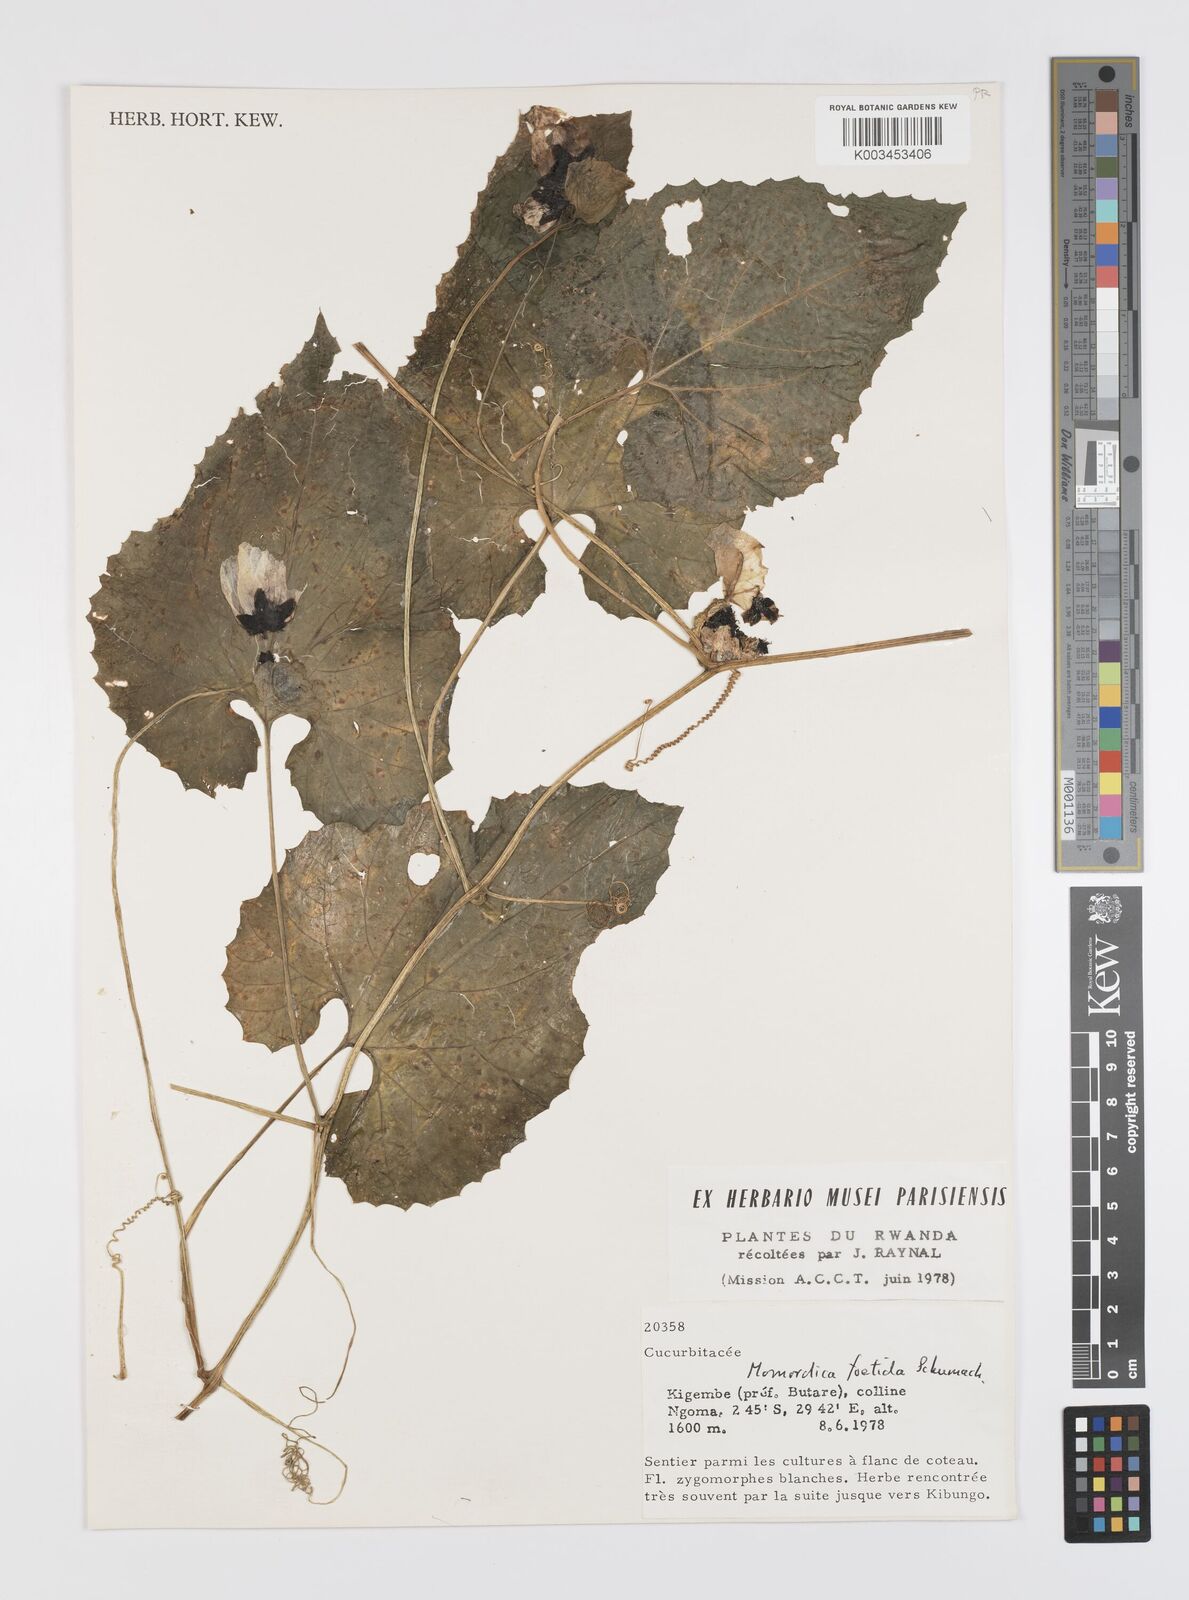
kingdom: Plantae
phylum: Tracheophyta
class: Magnoliopsida
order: Cucurbitales
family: Cucurbitaceae
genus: Momordica
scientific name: Momordica foetida
